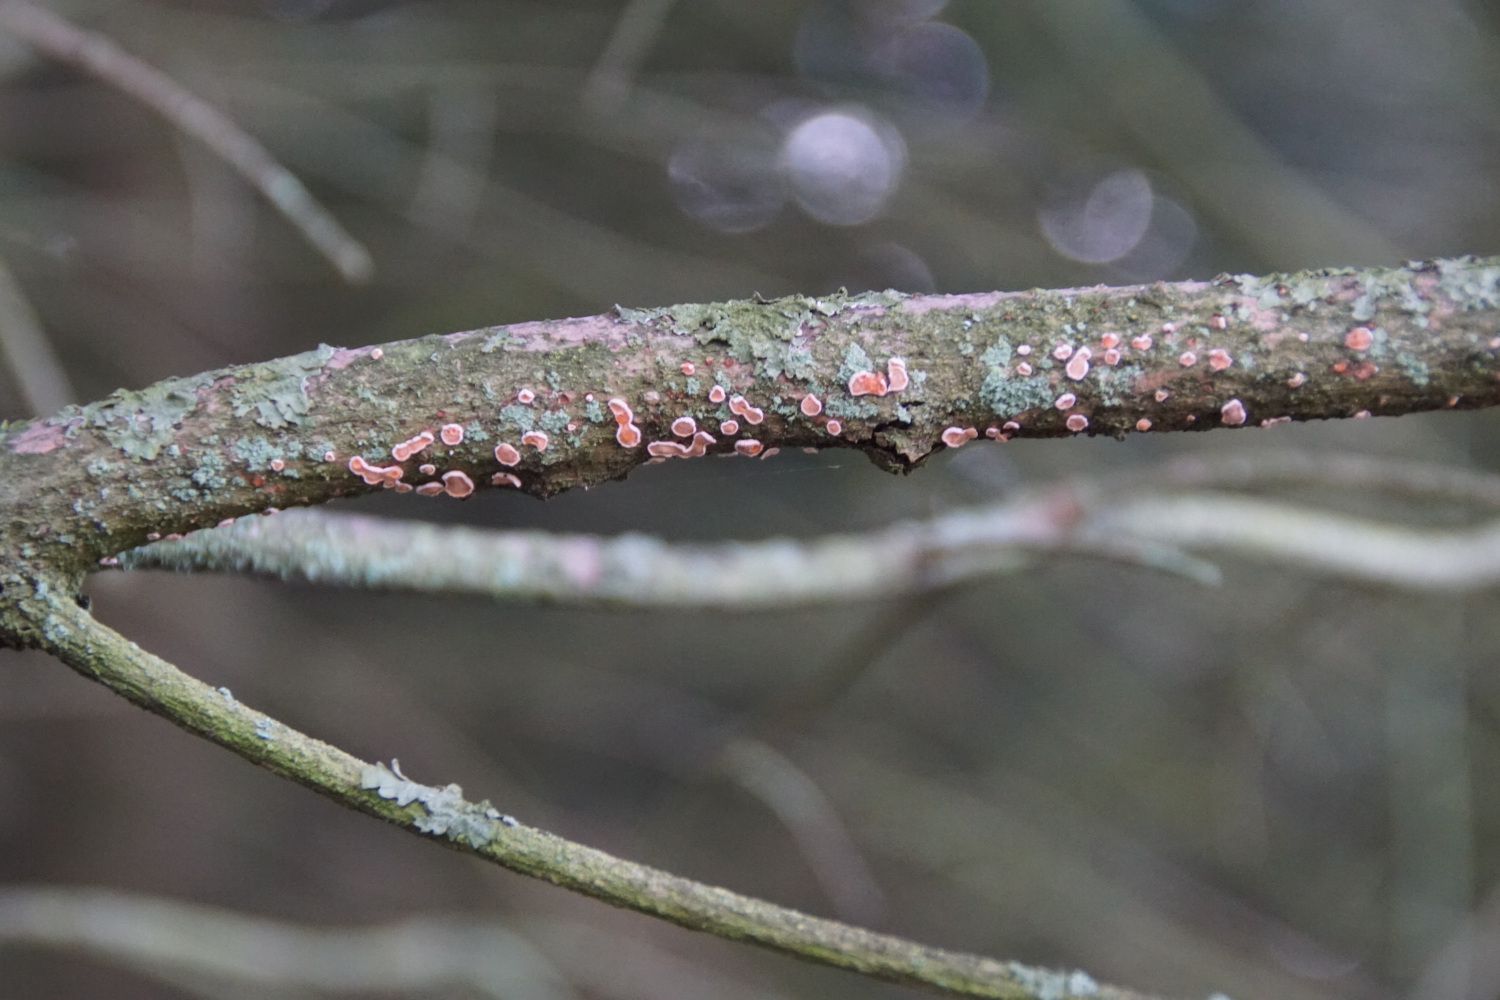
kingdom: Fungi
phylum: Basidiomycota
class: Agaricomycetes
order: Russulales
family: Stereaceae
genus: Aleurodiscus
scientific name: Aleurodiscus amorphus
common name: orange skiveskorpe
